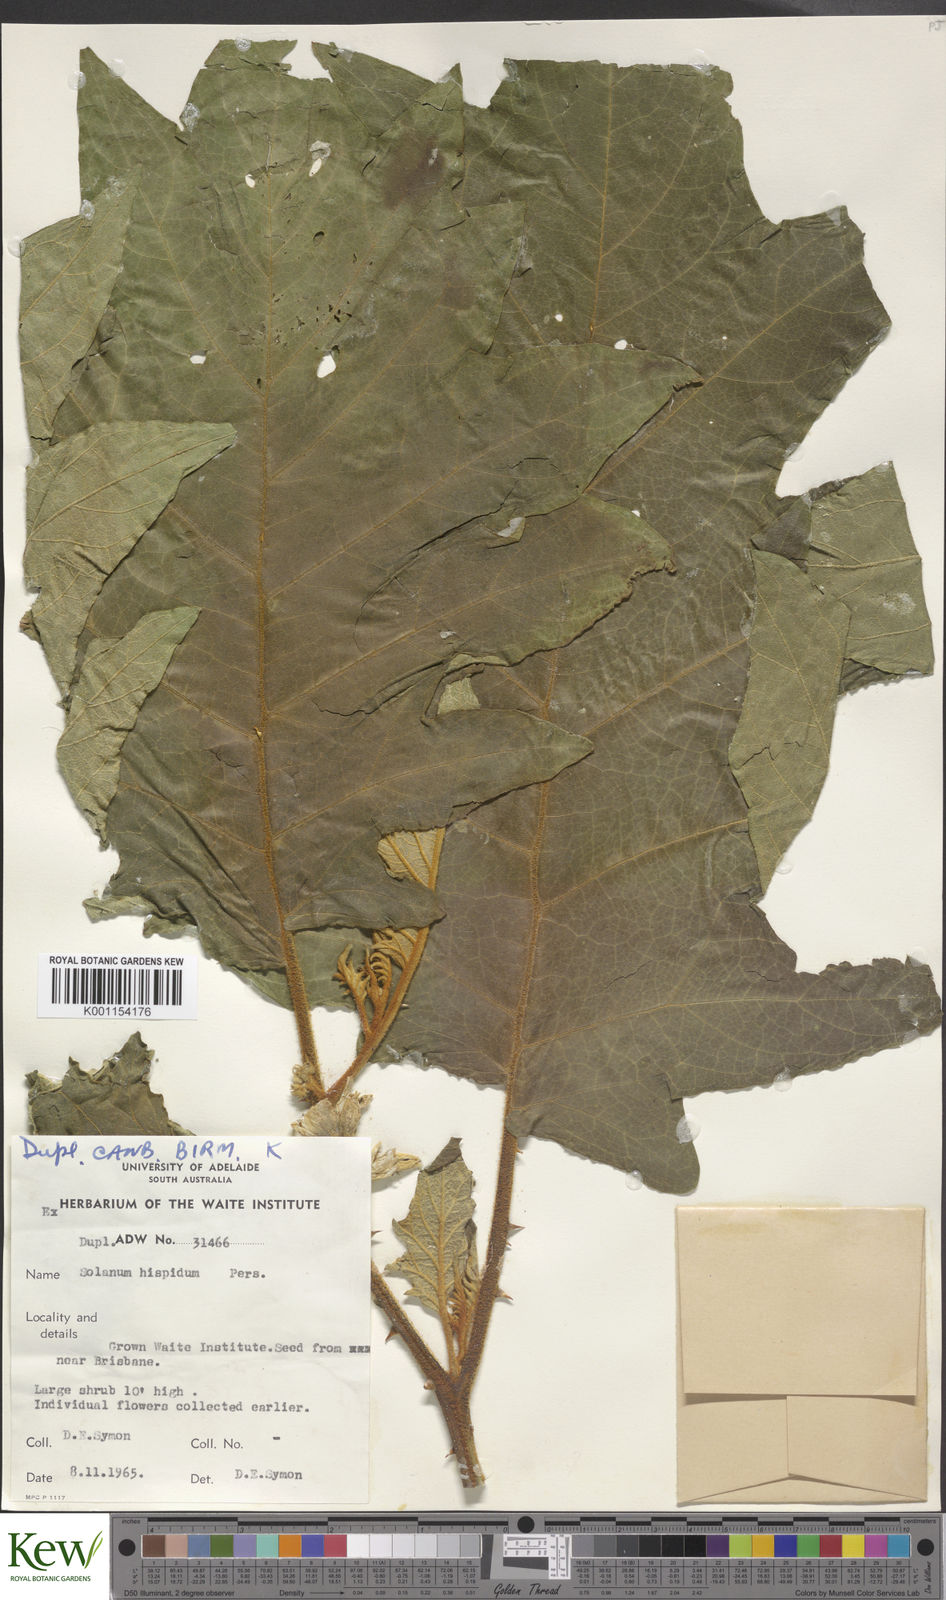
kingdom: Plantae
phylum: Tracheophyta
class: Magnoliopsida
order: Solanales
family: Solanaceae
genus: Solanum
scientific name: Solanum asperolanatum
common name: Devil's-fig
